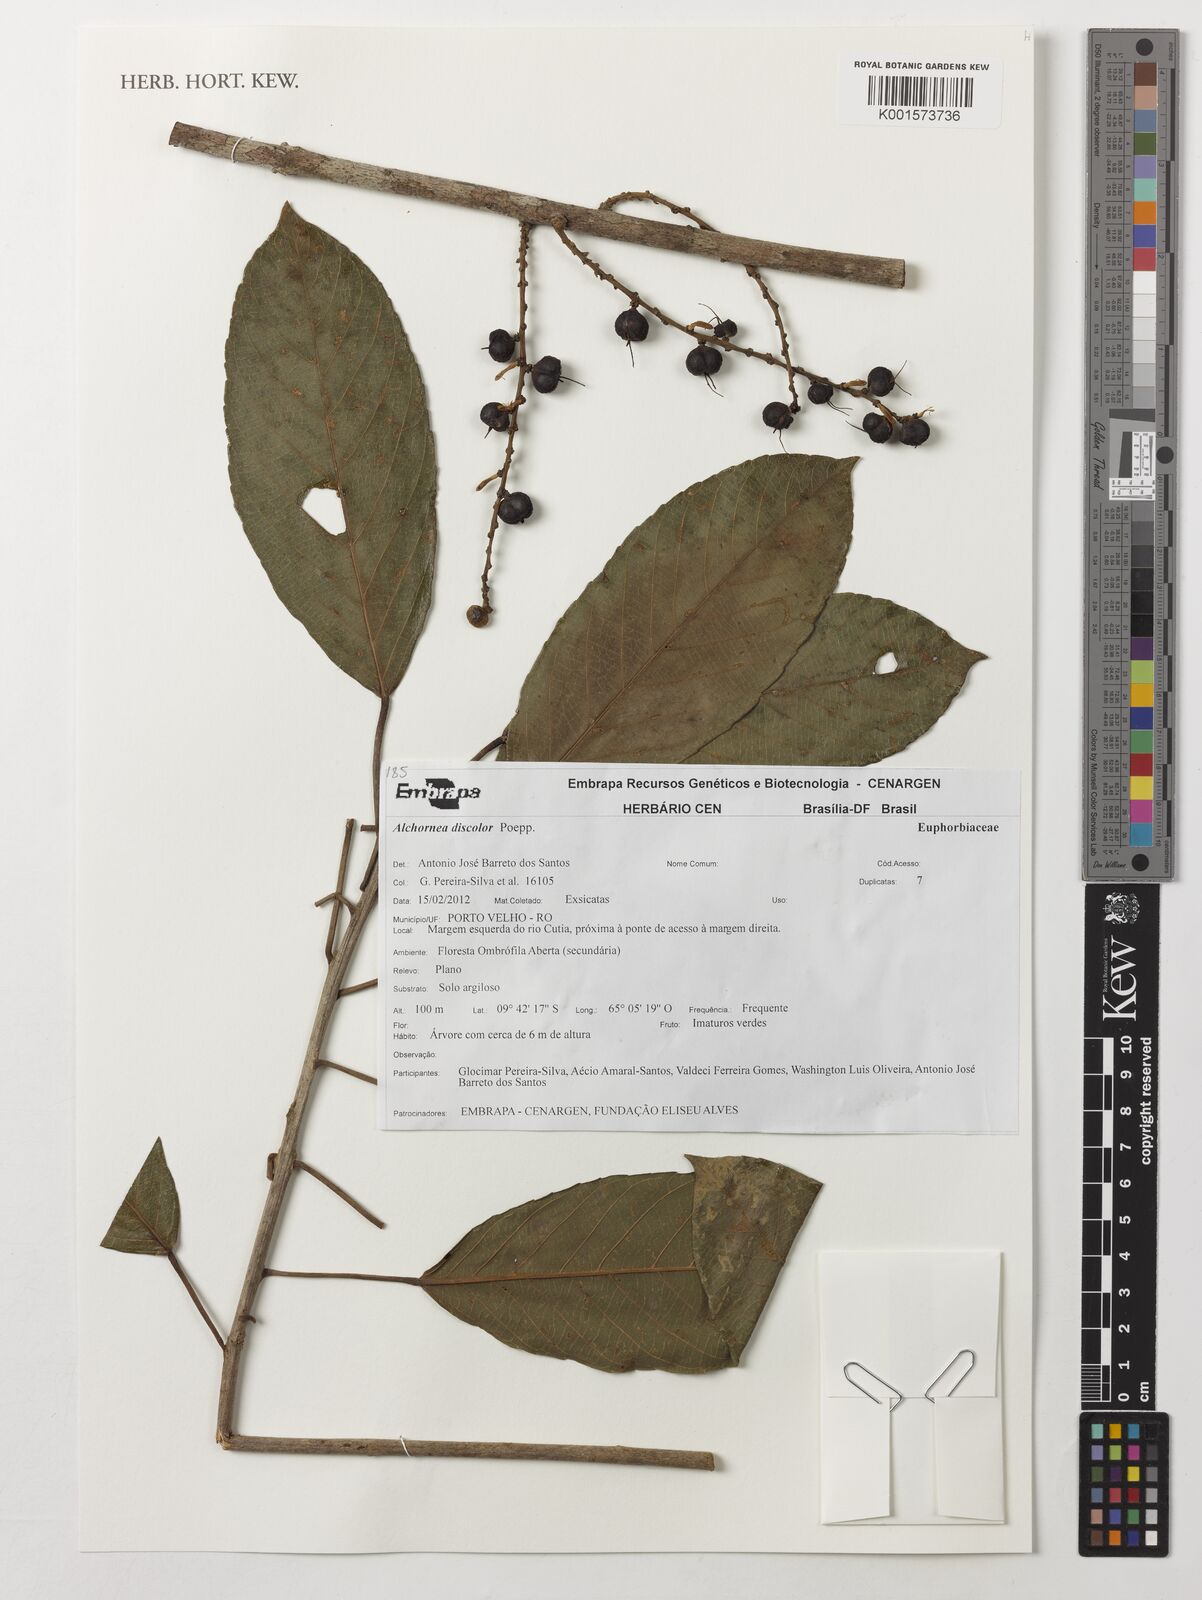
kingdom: Plantae
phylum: Tracheophyta
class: Magnoliopsida
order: Malpighiales
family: Euphorbiaceae
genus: Alchornea
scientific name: Alchornea discolor
